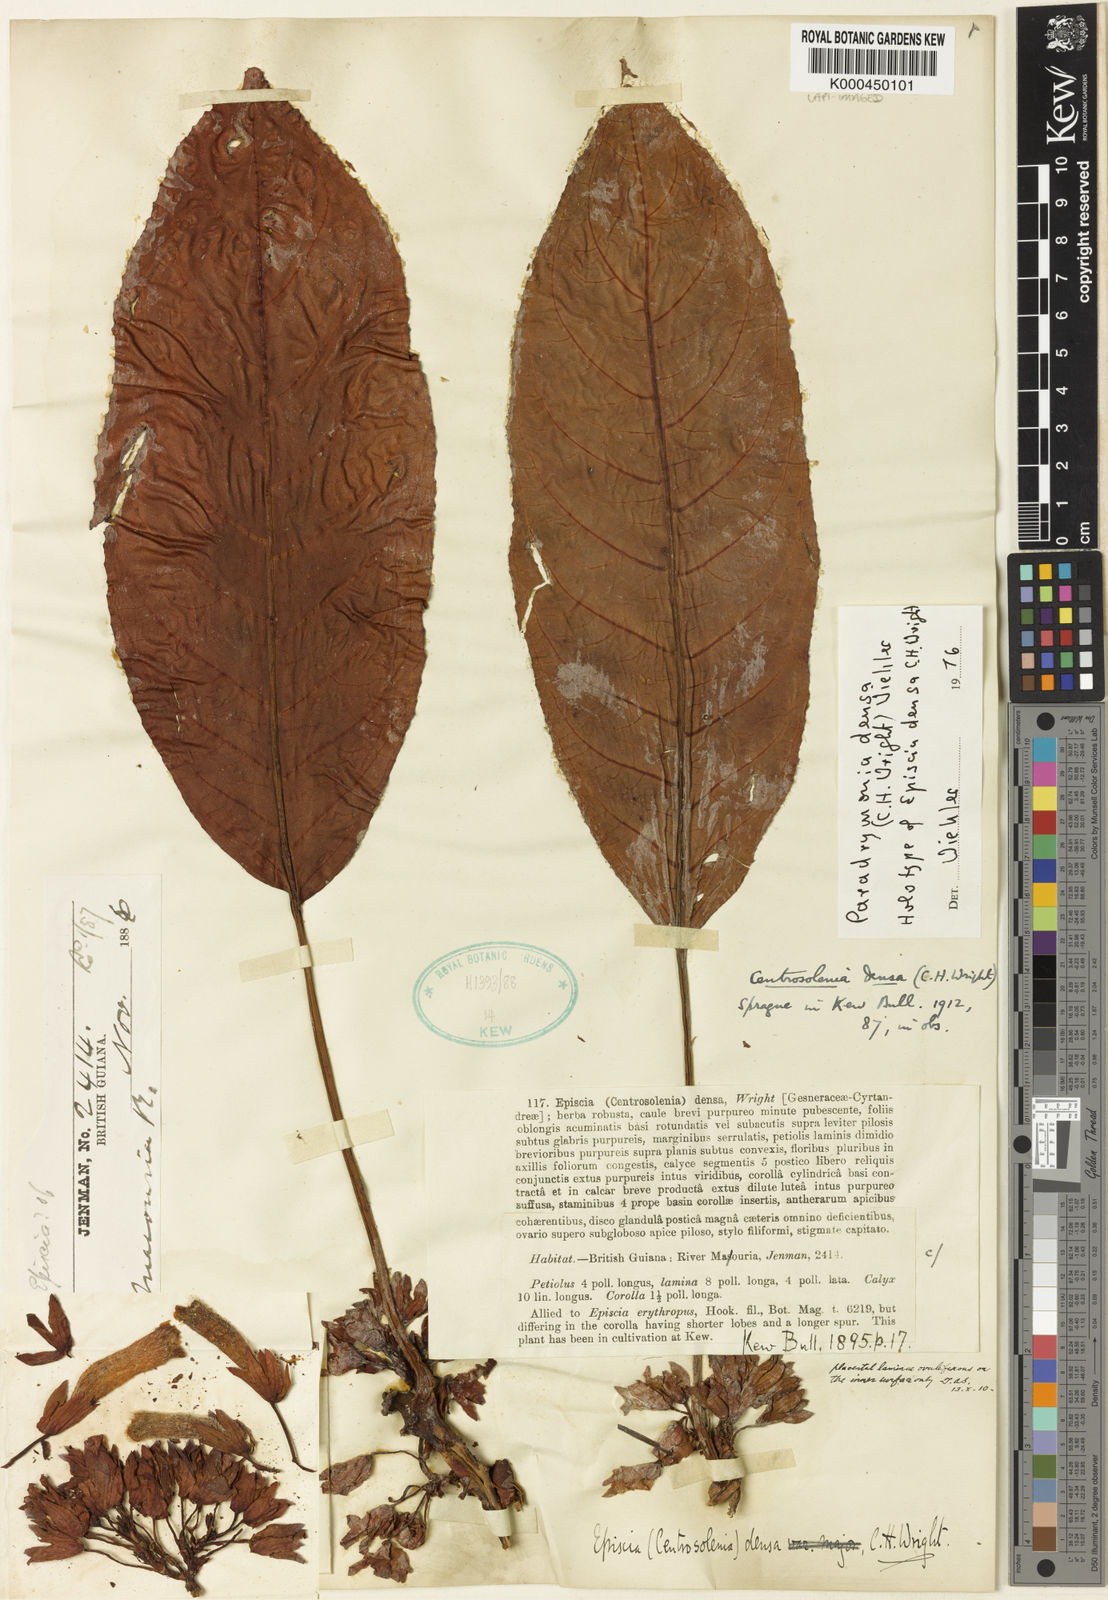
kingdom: Plantae
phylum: Tracheophyta
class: Magnoliopsida
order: Lamiales
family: Gesneriaceae
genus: Centrosolenia
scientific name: Centrosolenia densa
